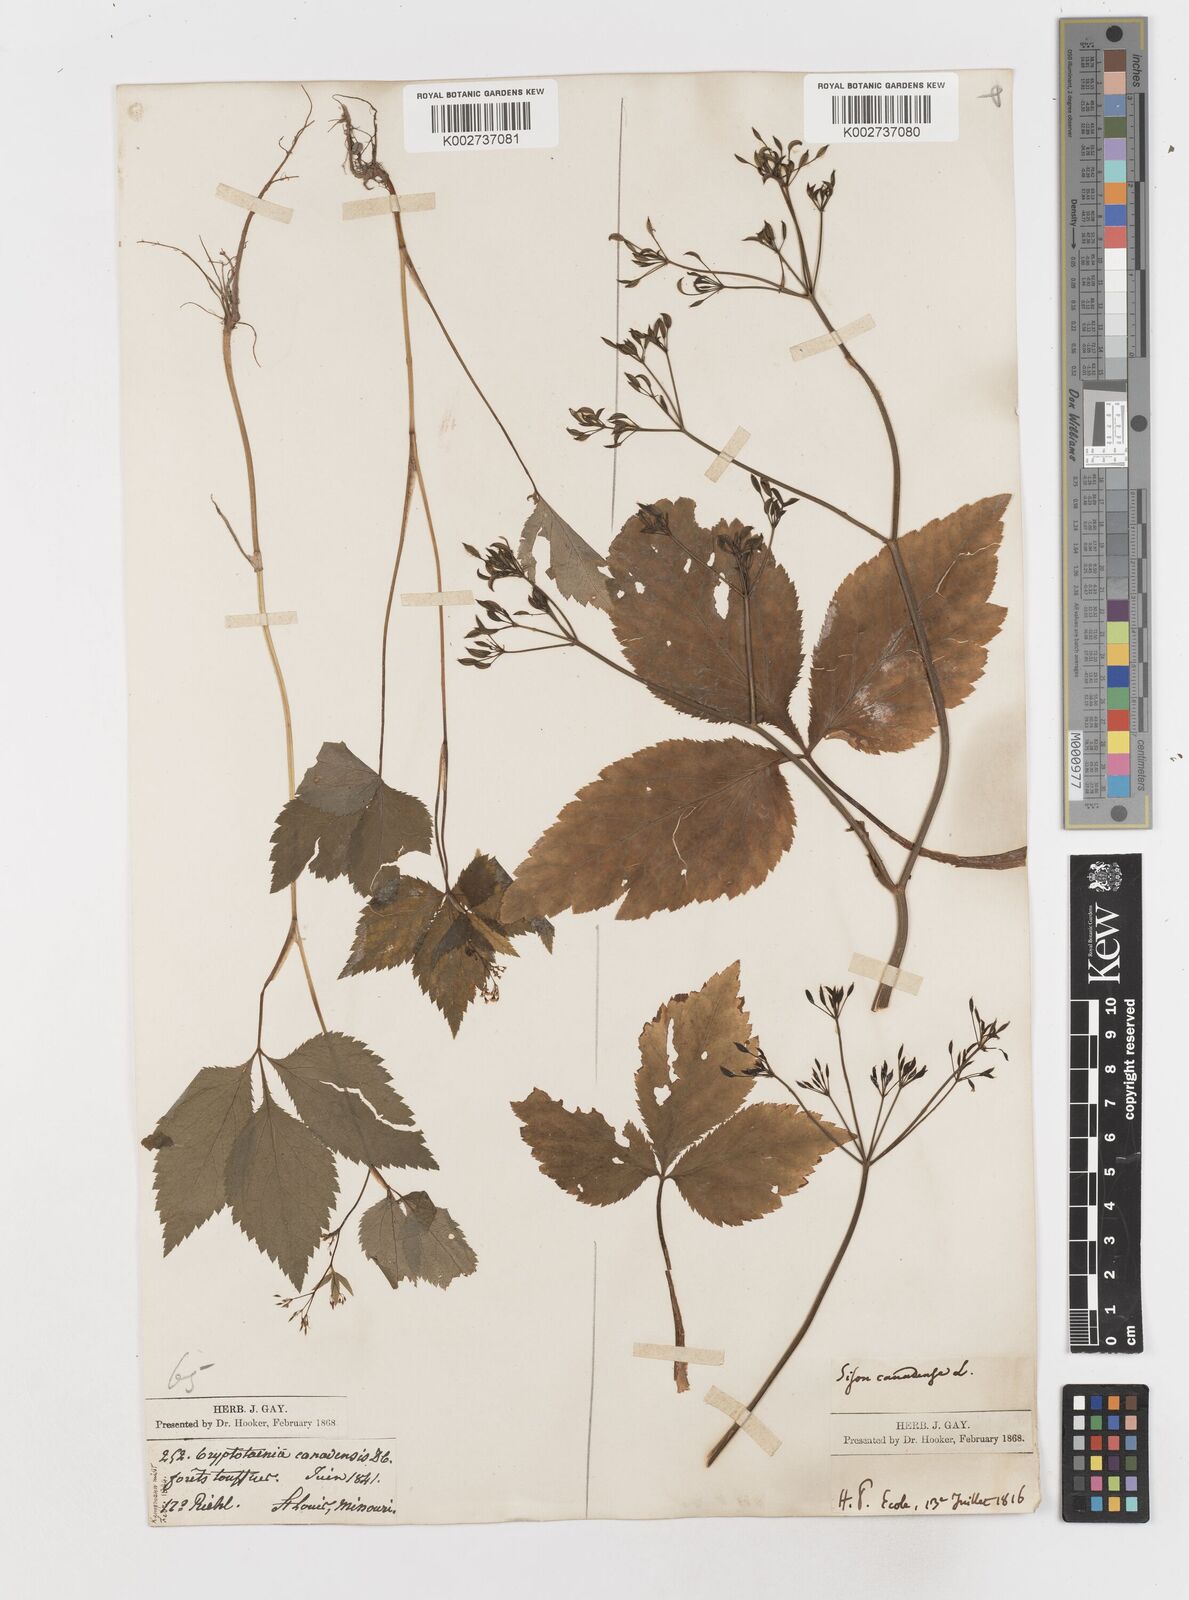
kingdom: Plantae
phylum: Tracheophyta
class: Magnoliopsida
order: Apiales
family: Apiaceae
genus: Cryptotaenia
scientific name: Cryptotaenia canadensis
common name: Honewort
